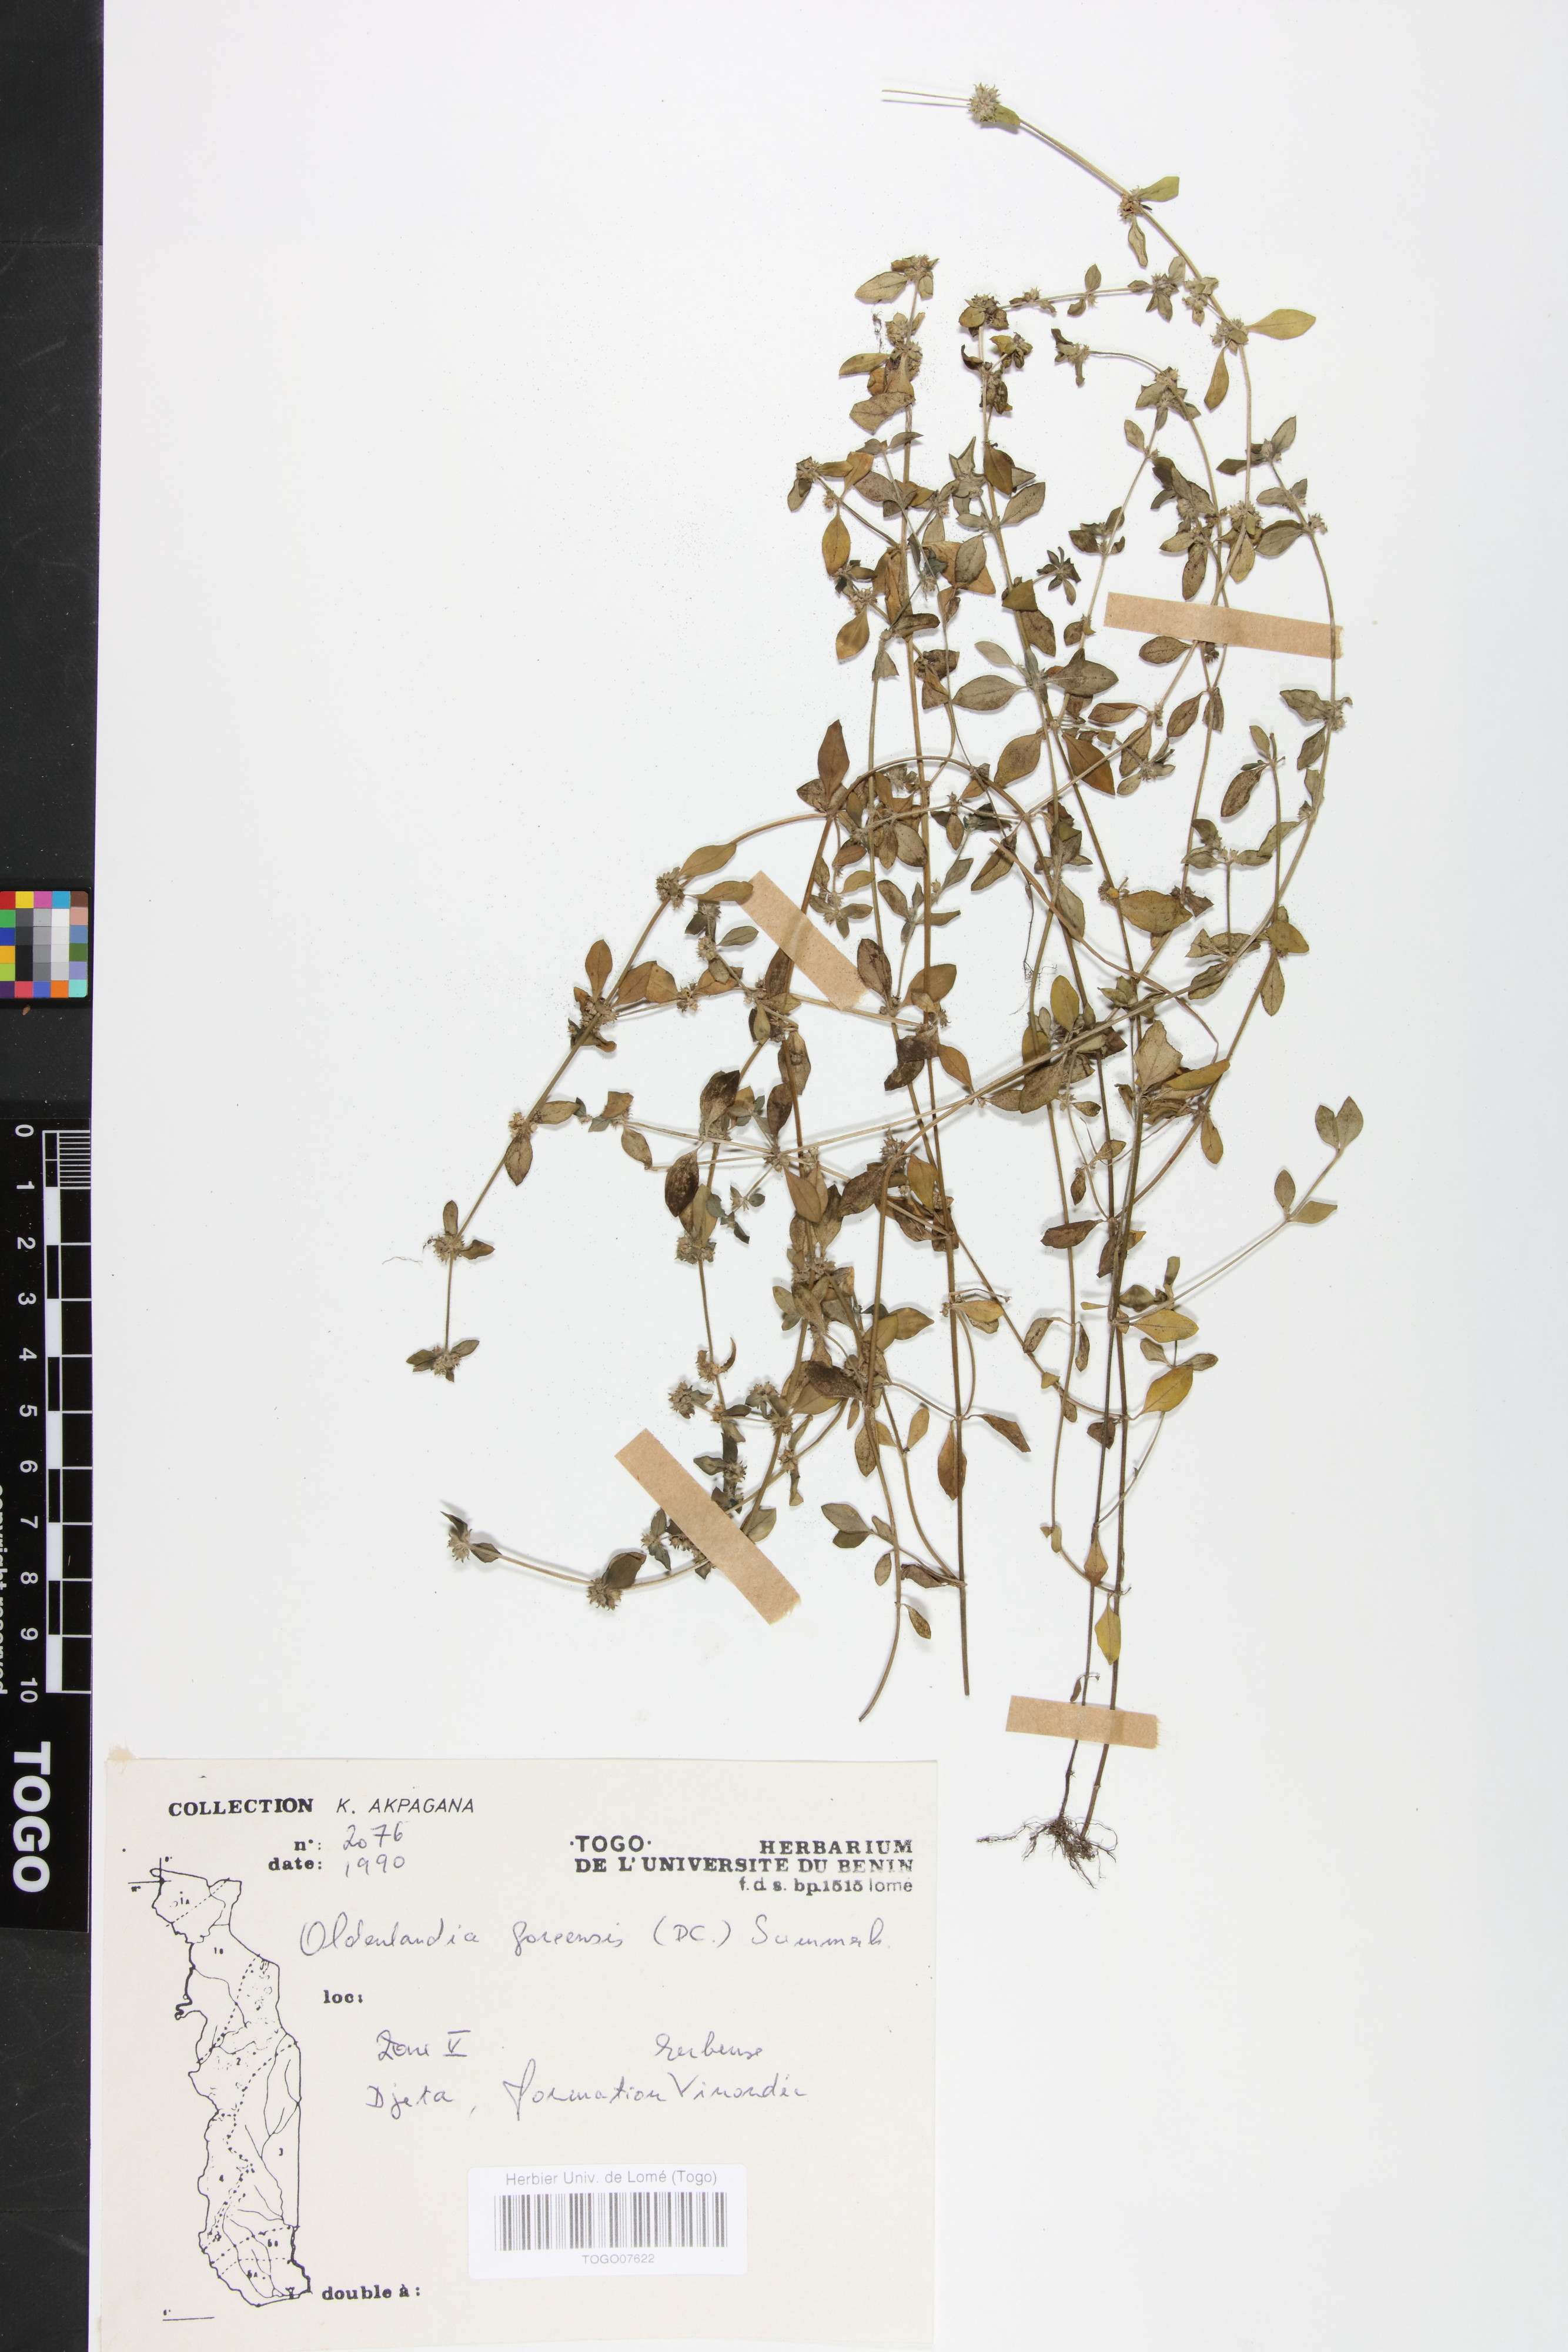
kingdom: Plantae
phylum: Tracheophyta
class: Magnoliopsida
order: Gentianales
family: Rubiaceae
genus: Edrastima
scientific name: Edrastima goreensis
